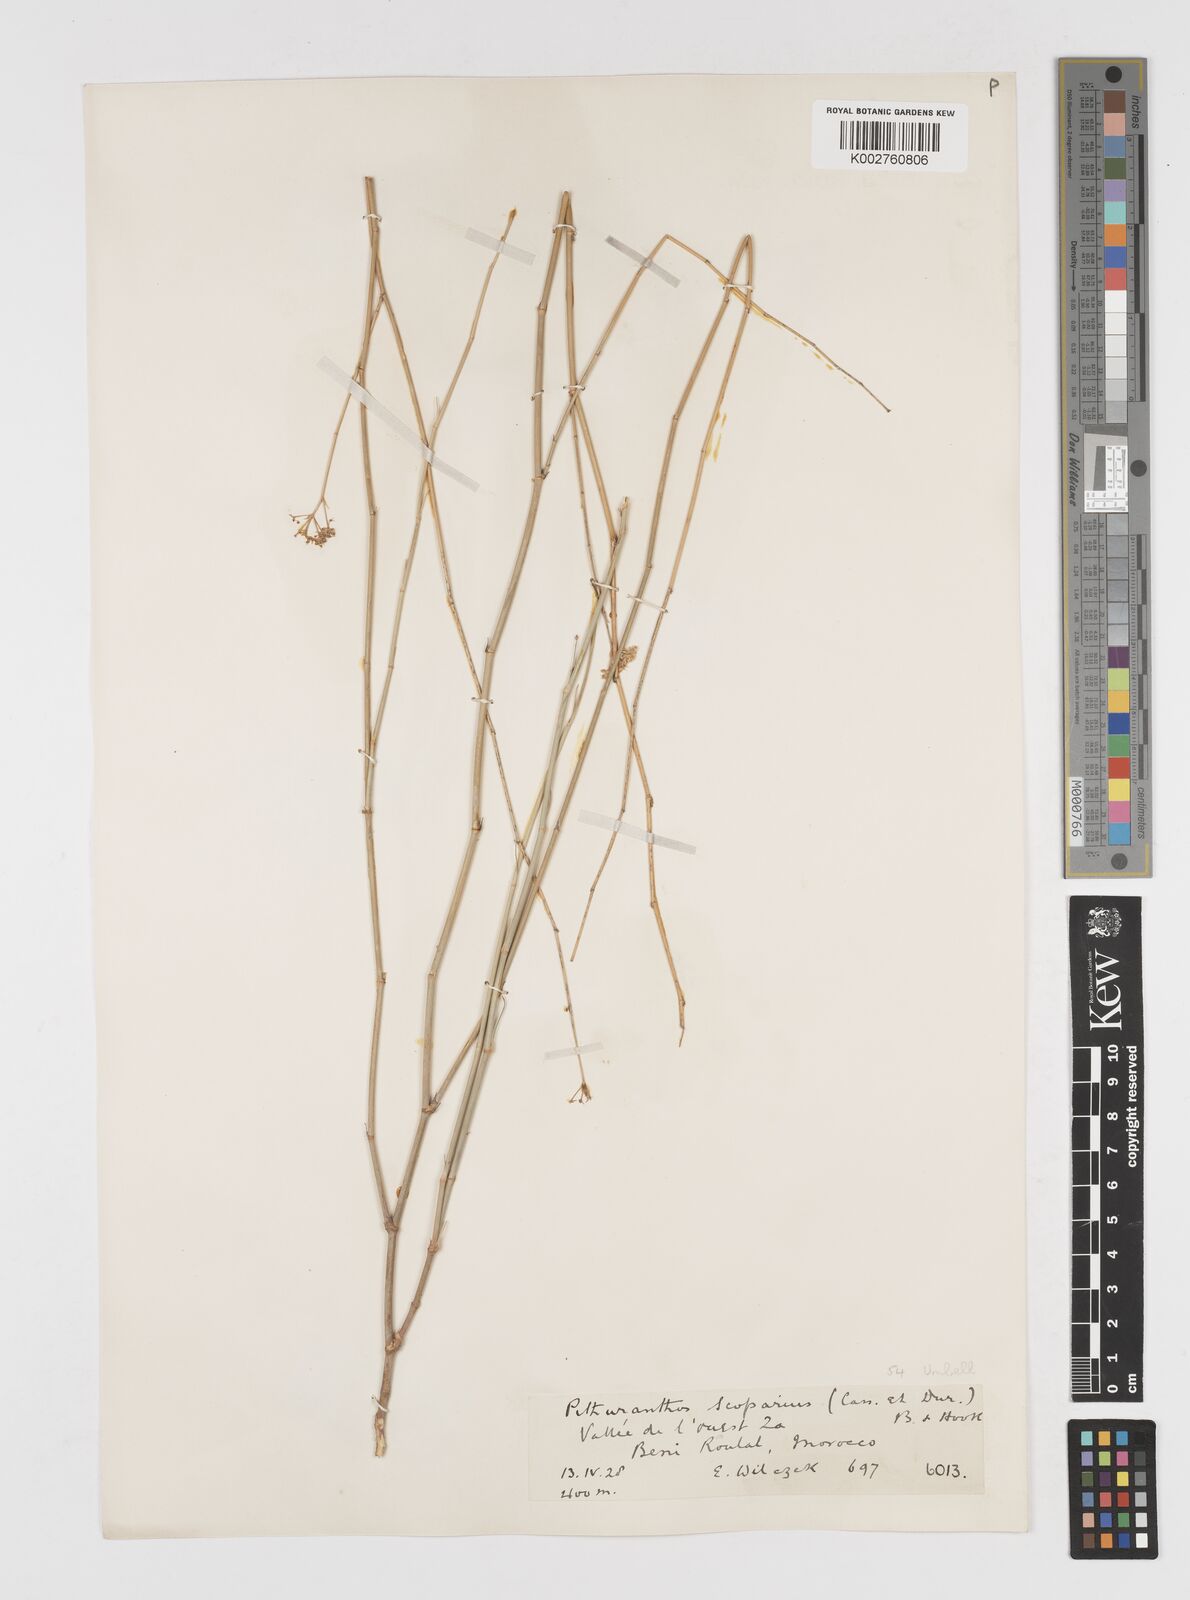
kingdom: Plantae
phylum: Tracheophyta
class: Magnoliopsida
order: Apiales
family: Apiaceae
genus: Deverra
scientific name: Deverra scoparia
